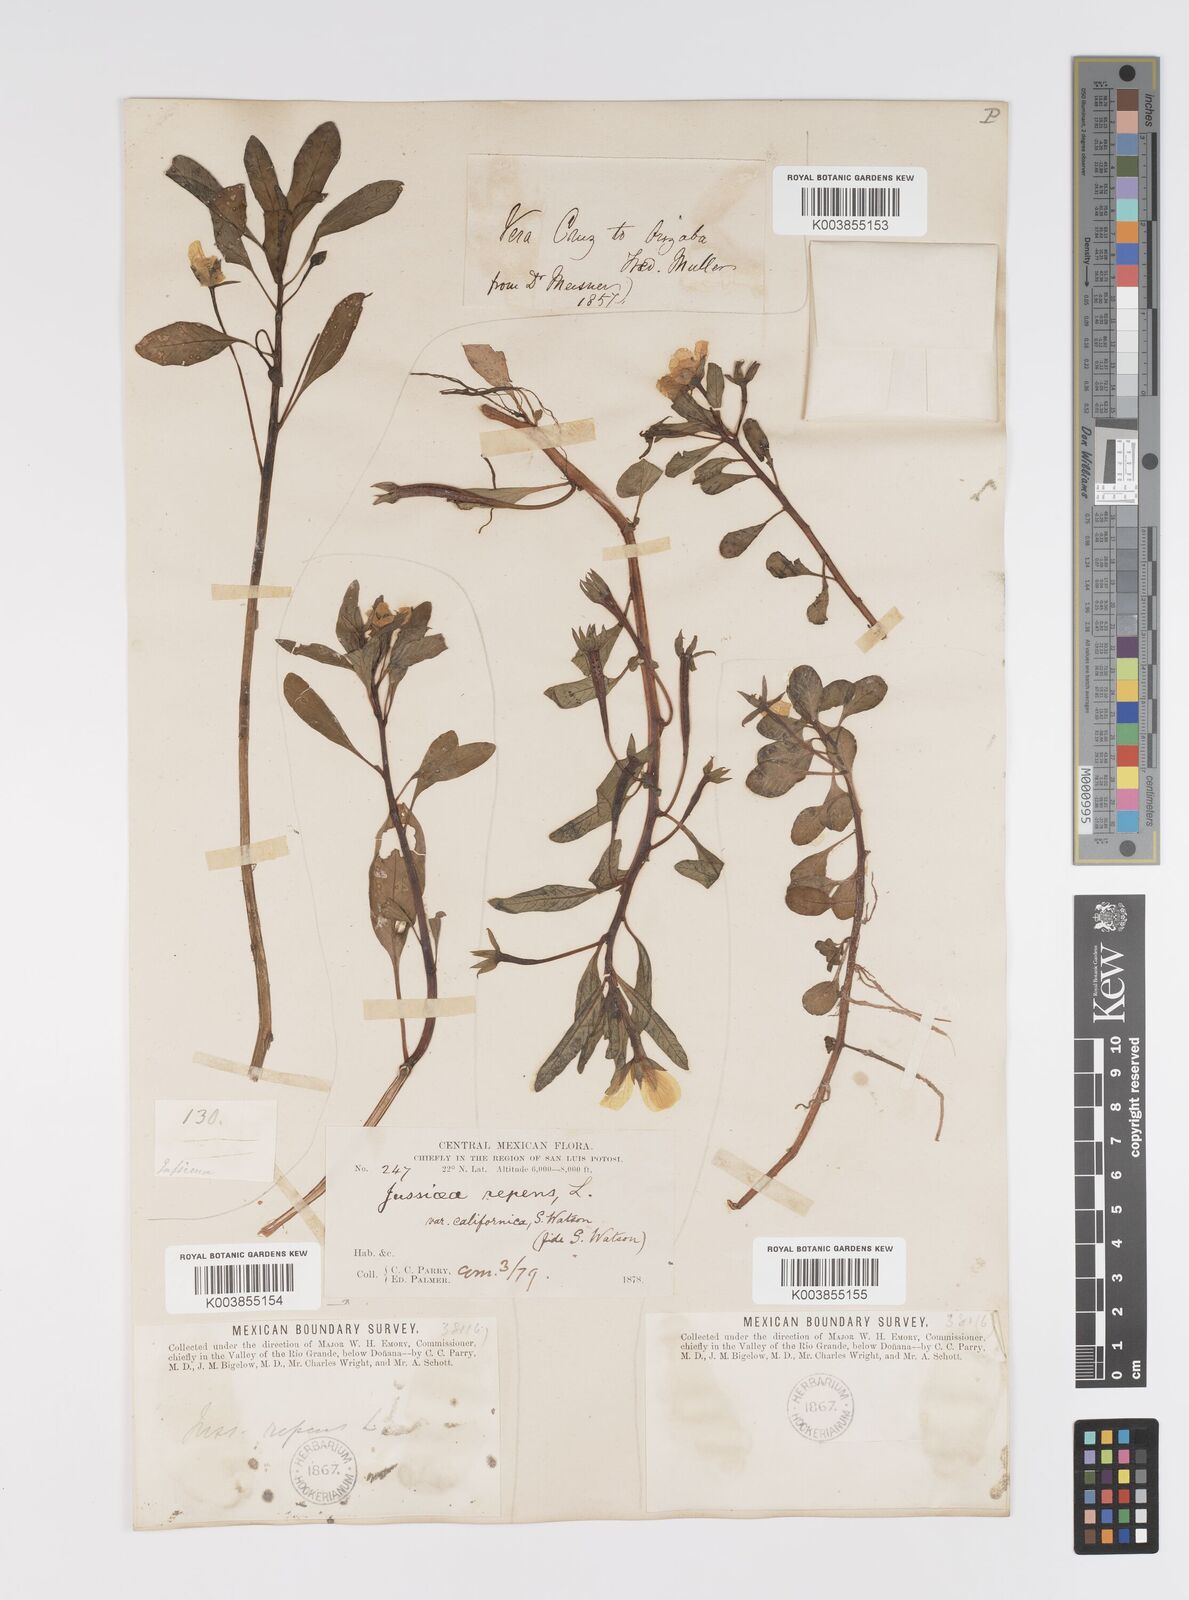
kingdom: Plantae
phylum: Tracheophyta
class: Magnoliopsida
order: Myrtales
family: Onagraceae
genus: Ludwigia
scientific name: Ludwigia adscendens
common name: Creeping water primrose
